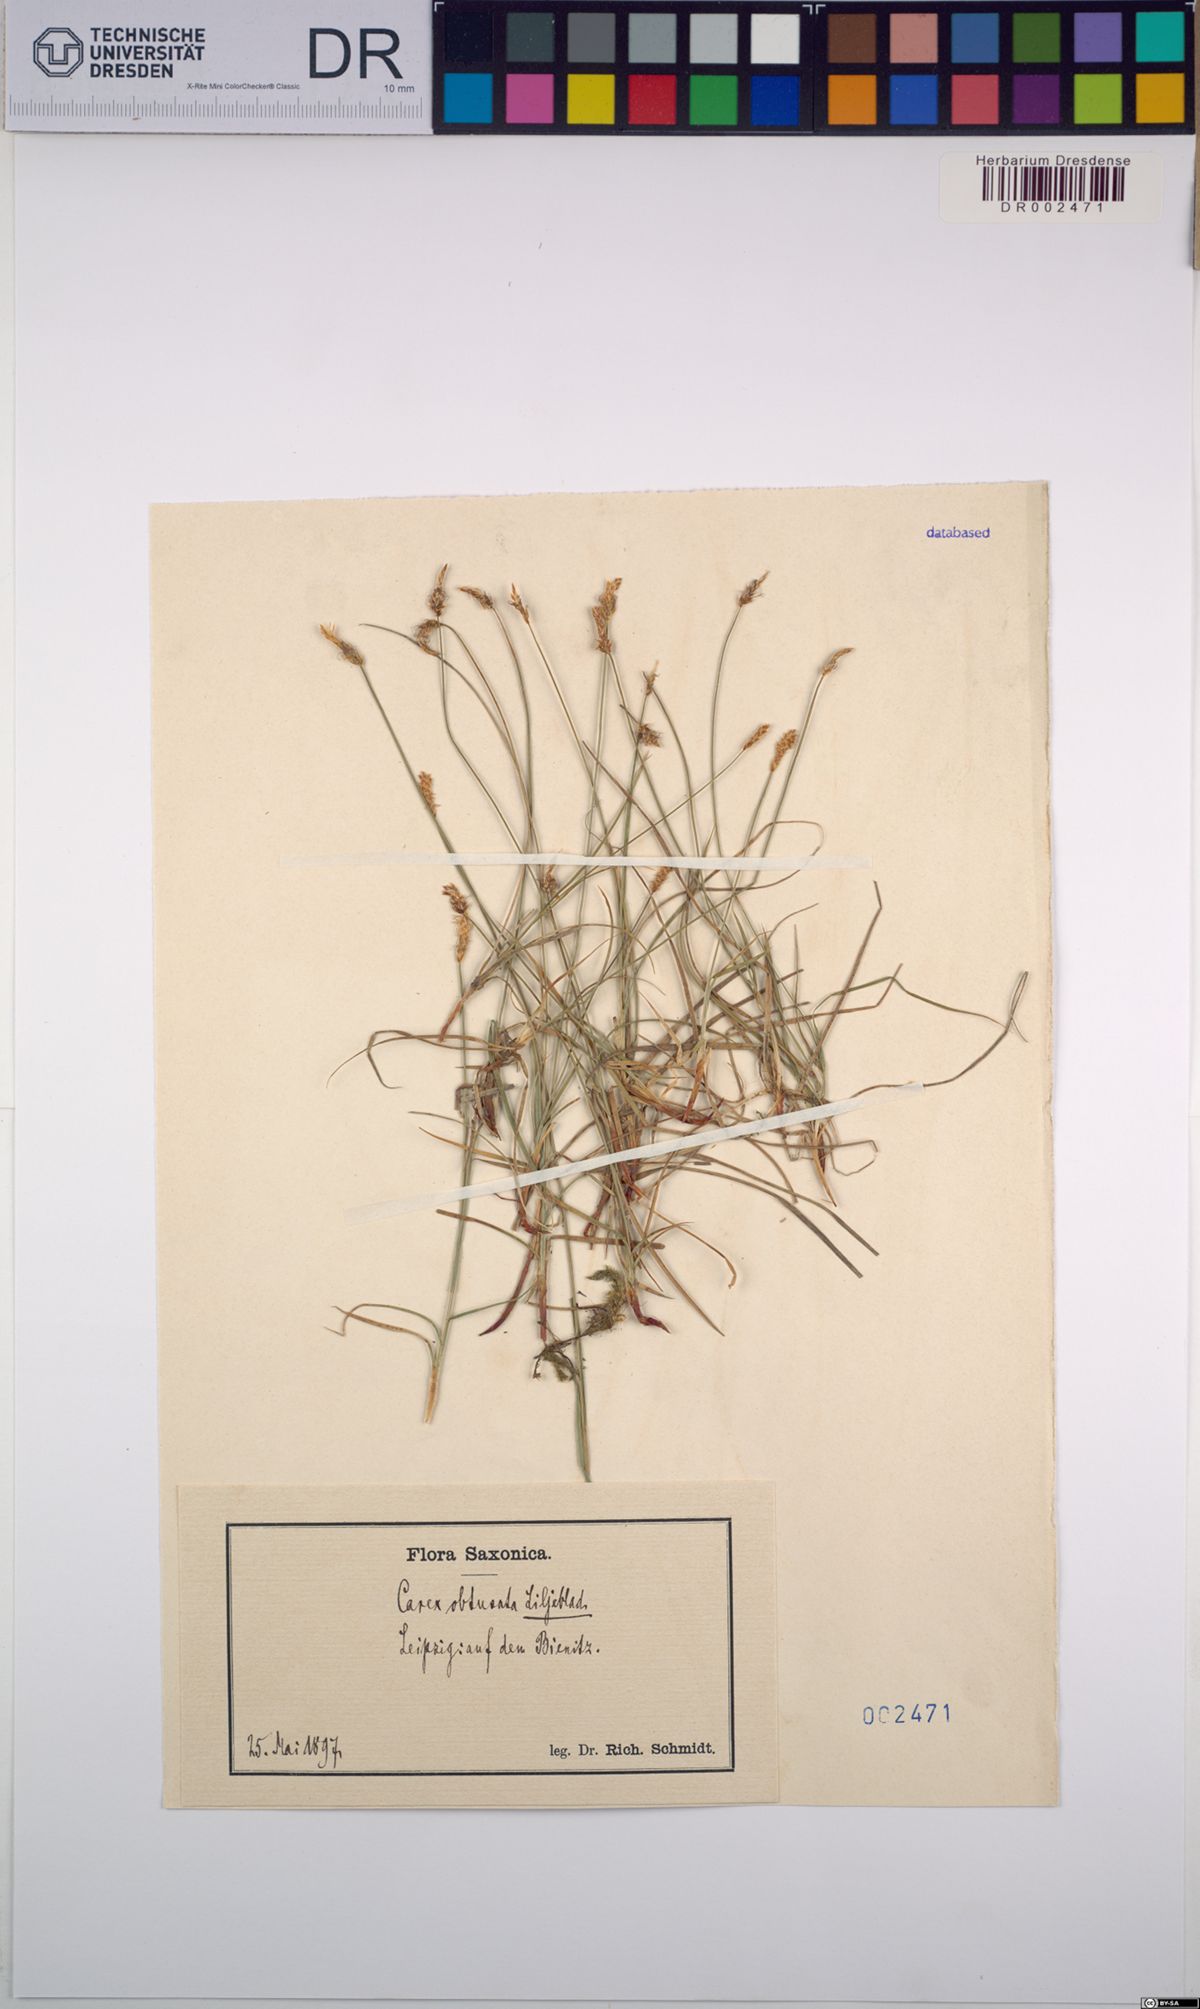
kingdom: Plantae
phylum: Tracheophyta
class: Liliopsida
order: Poales
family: Cyperaceae
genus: Carex
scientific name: Carex obtusata
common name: Blunt sedge
